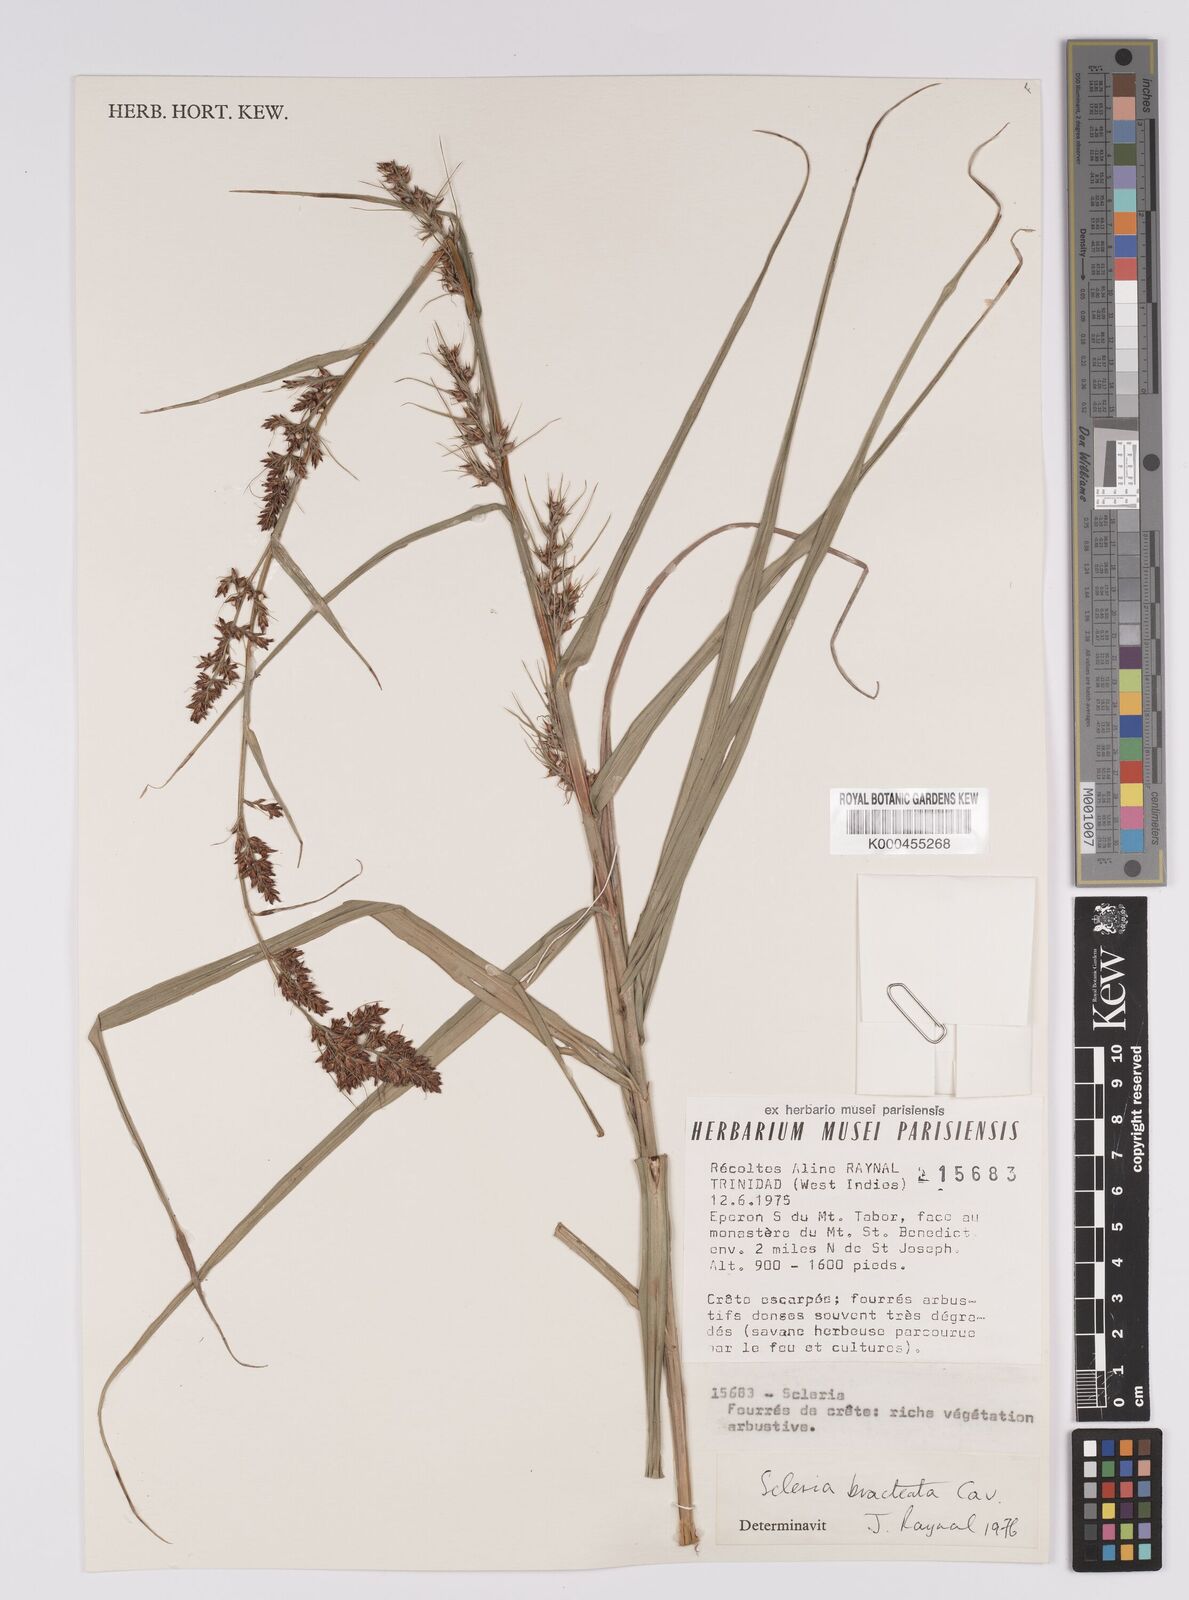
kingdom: Plantae
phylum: Tracheophyta
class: Liliopsida
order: Poales
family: Cyperaceae
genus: Scleria
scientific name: Scleria bracteata
